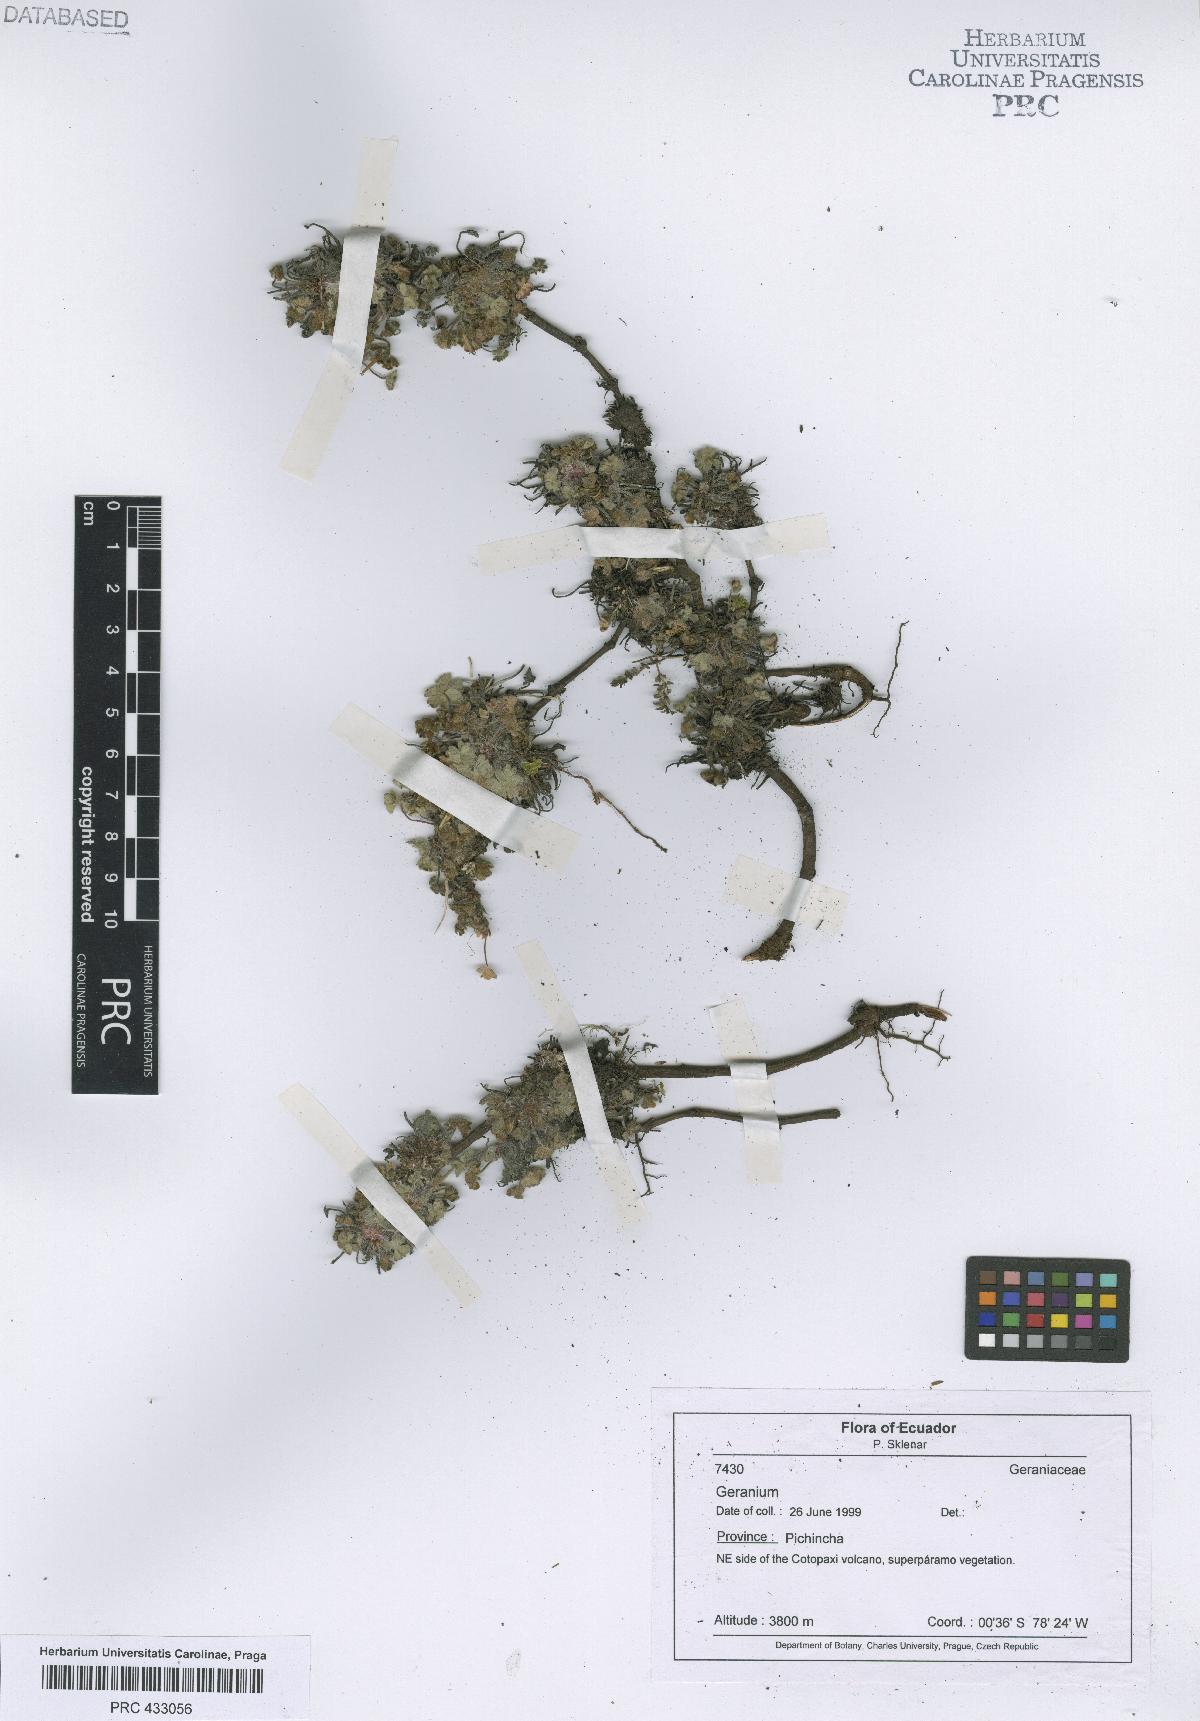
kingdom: Plantae
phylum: Tracheophyta
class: Magnoliopsida
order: Geraniales
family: Geraniaceae
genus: Geranium
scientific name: Geranium antisanae
